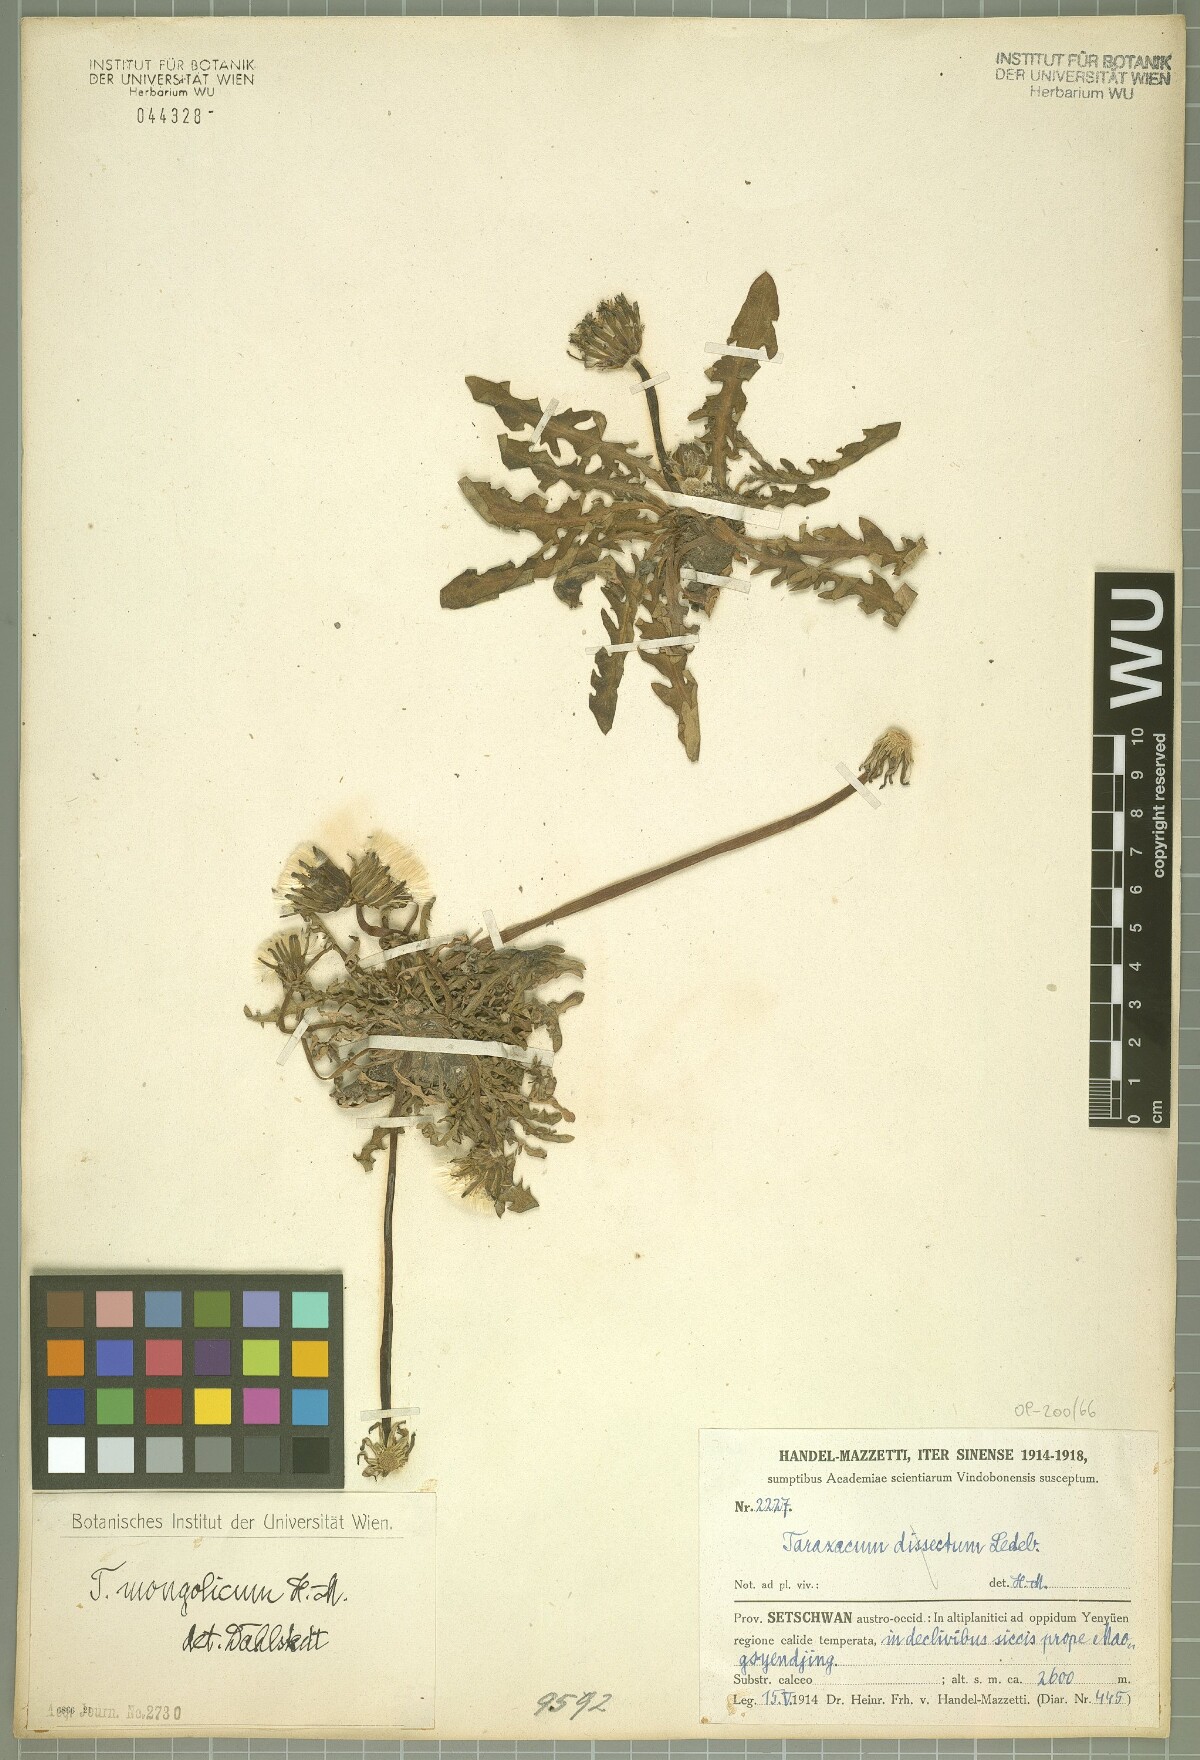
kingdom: Plantae
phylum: Tracheophyta
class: Magnoliopsida
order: Asterales
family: Asteraceae
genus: Taraxacum
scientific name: Taraxacum mongolicum
